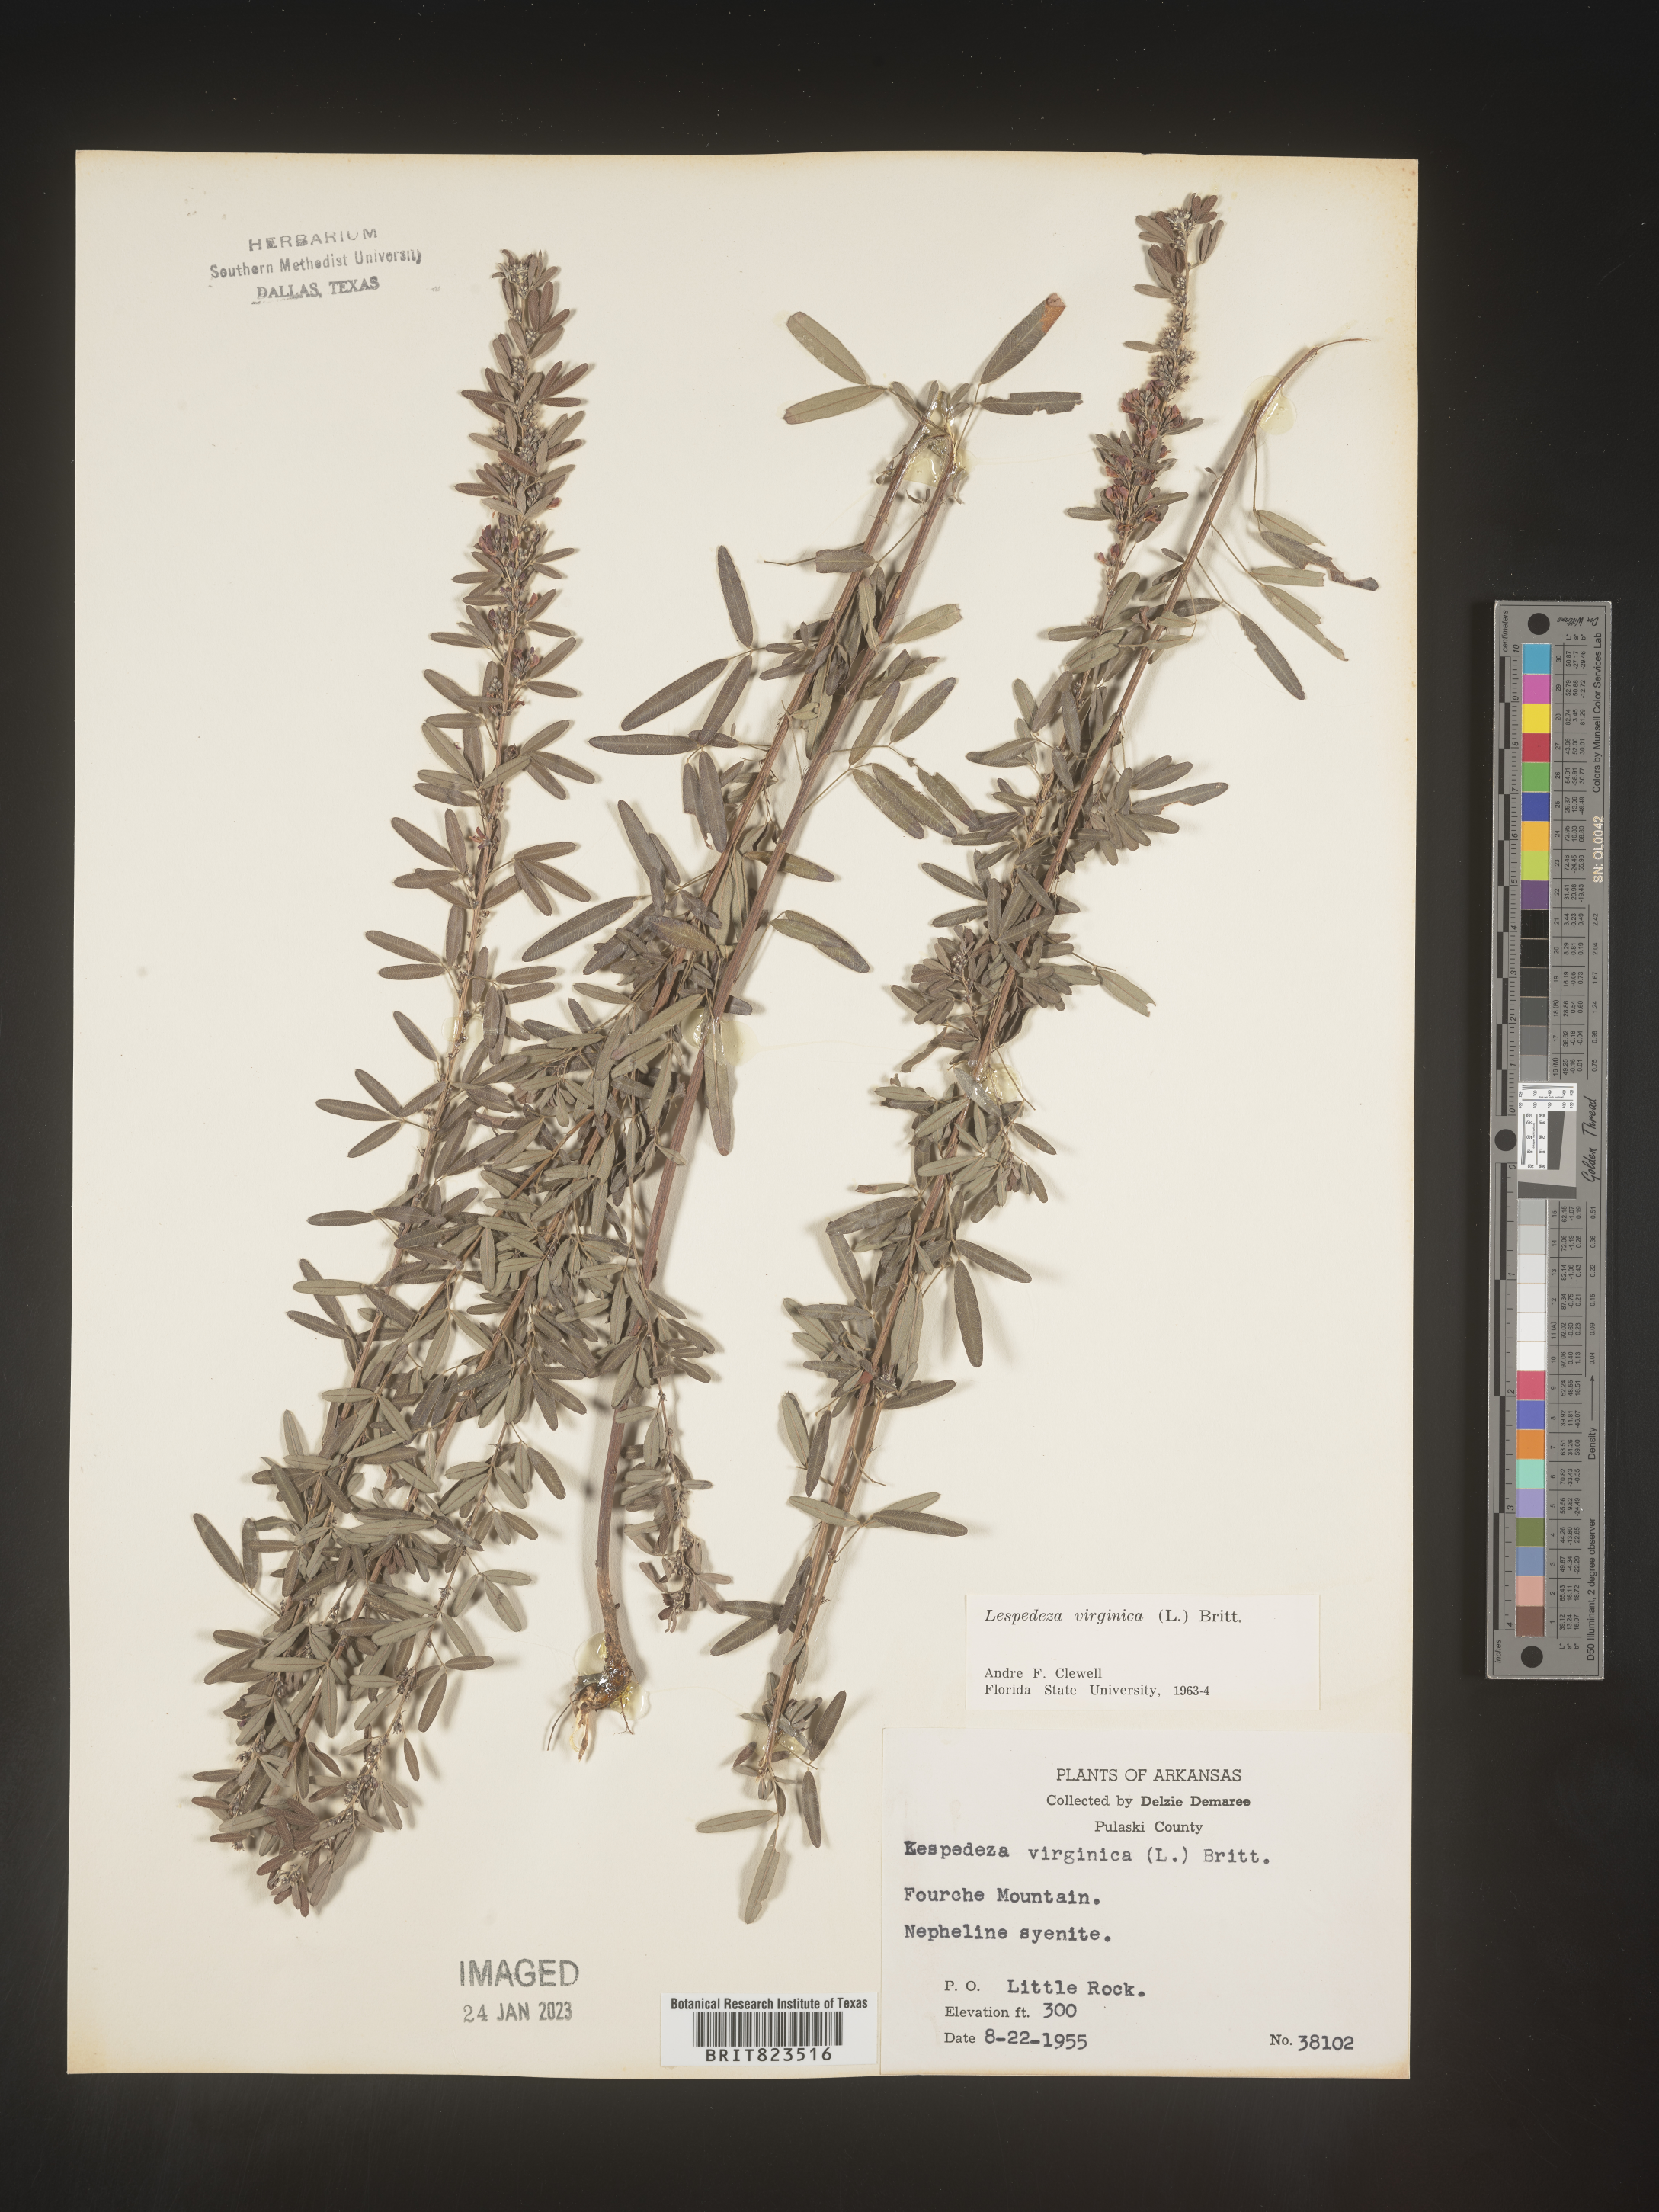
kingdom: Plantae
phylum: Tracheophyta
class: Magnoliopsida
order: Fabales
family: Fabaceae
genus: Lespedeza
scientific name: Lespedeza virginica
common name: Slender bush-clover
